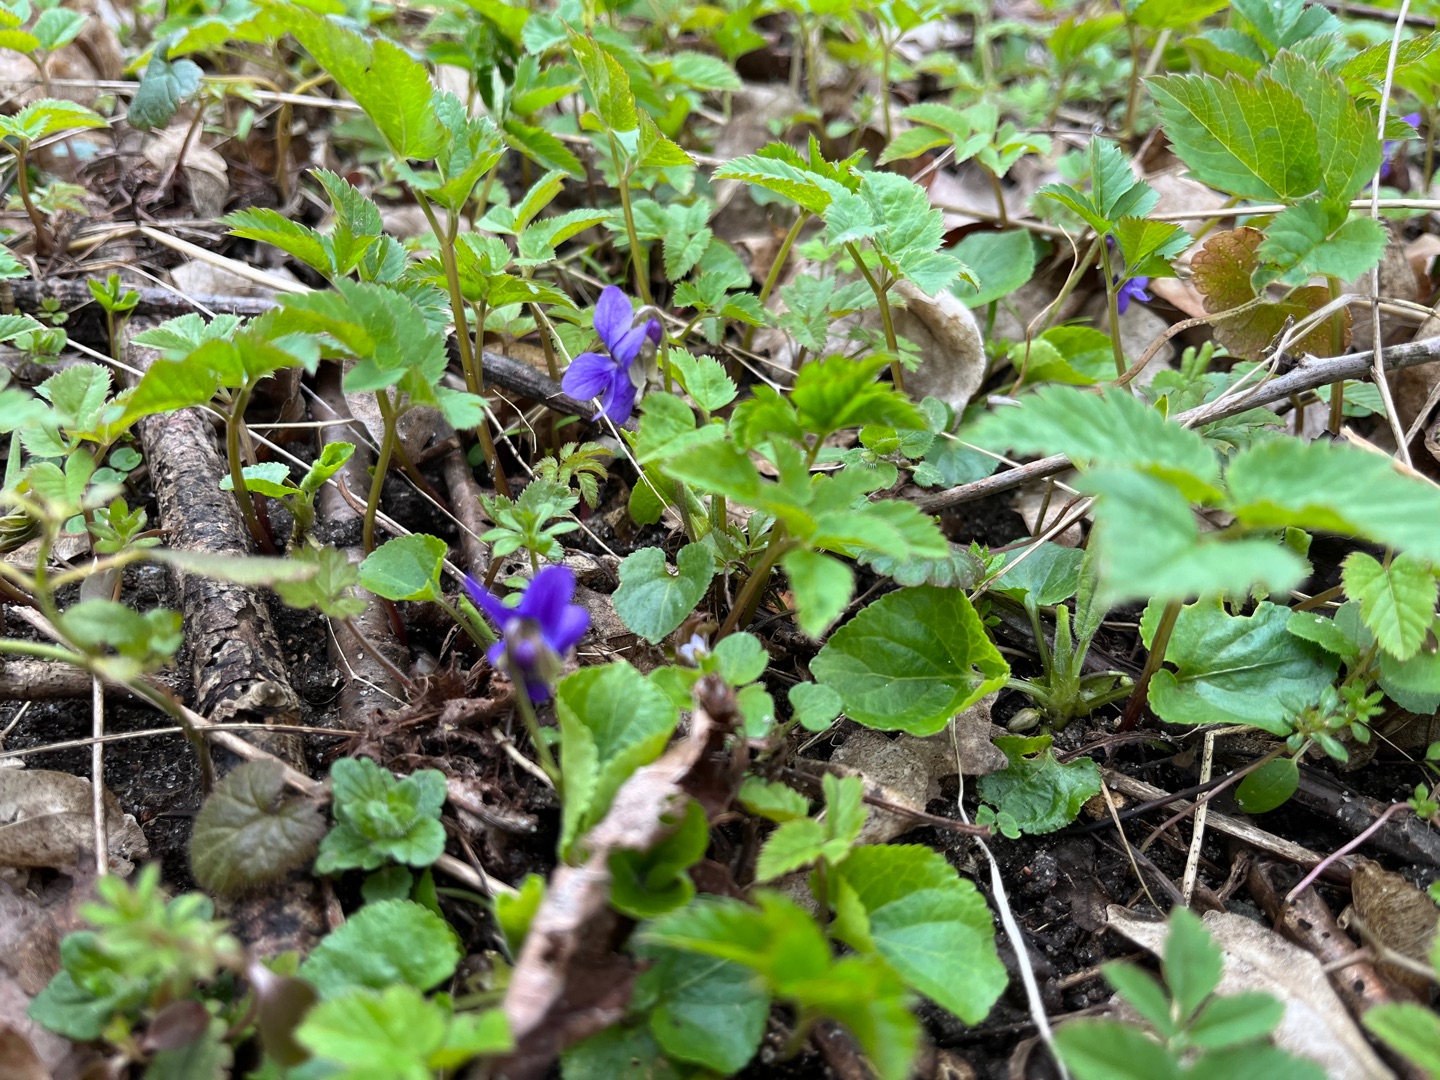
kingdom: Plantae
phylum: Tracheophyta
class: Magnoliopsida
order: Malpighiales
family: Violaceae
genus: Viola
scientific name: Viola odorata
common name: Marts-viol
